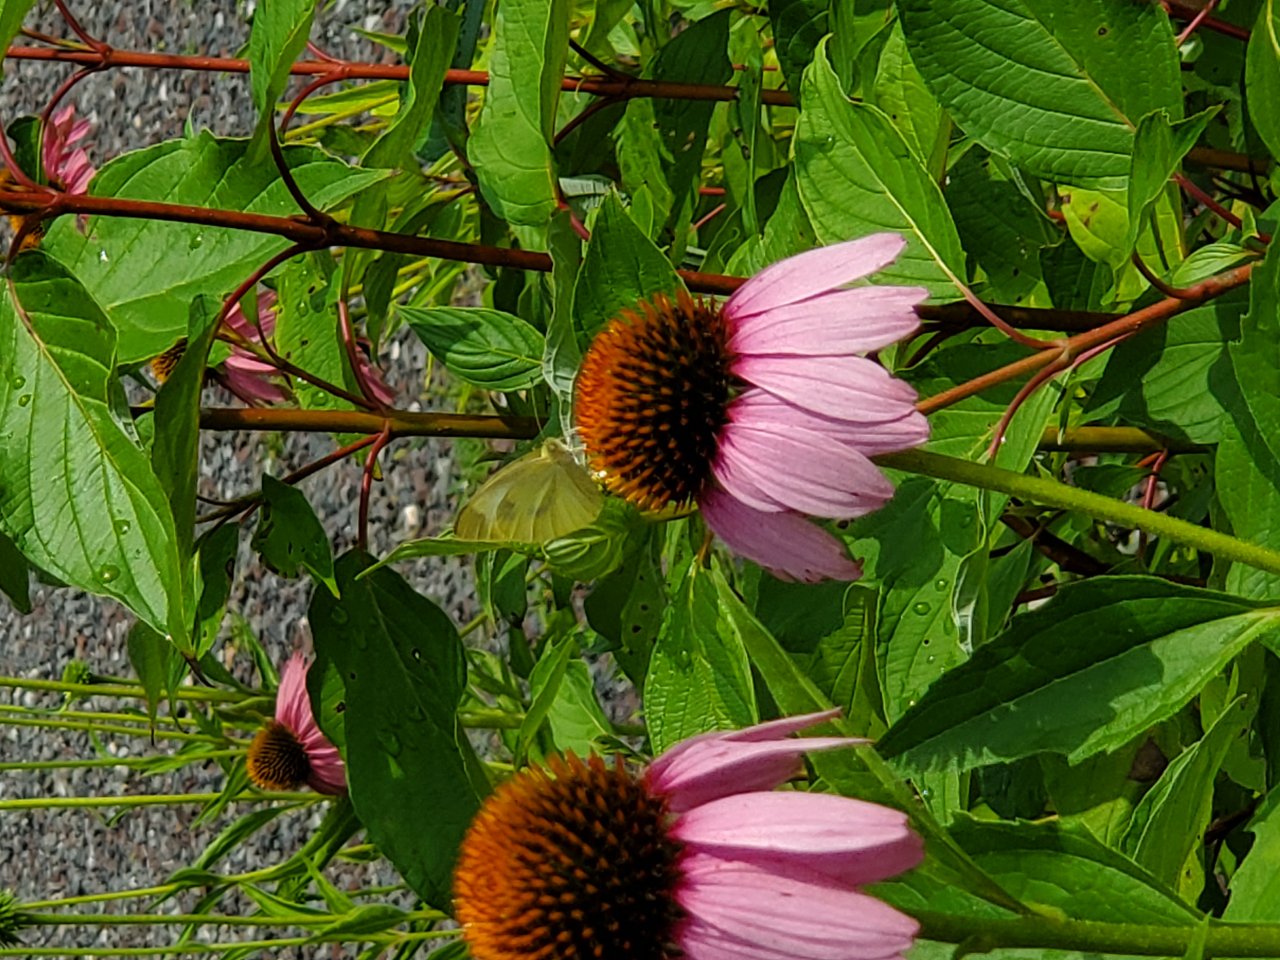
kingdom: Animalia
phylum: Arthropoda
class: Insecta
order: Lepidoptera
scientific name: Lepidoptera
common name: Butterflies
